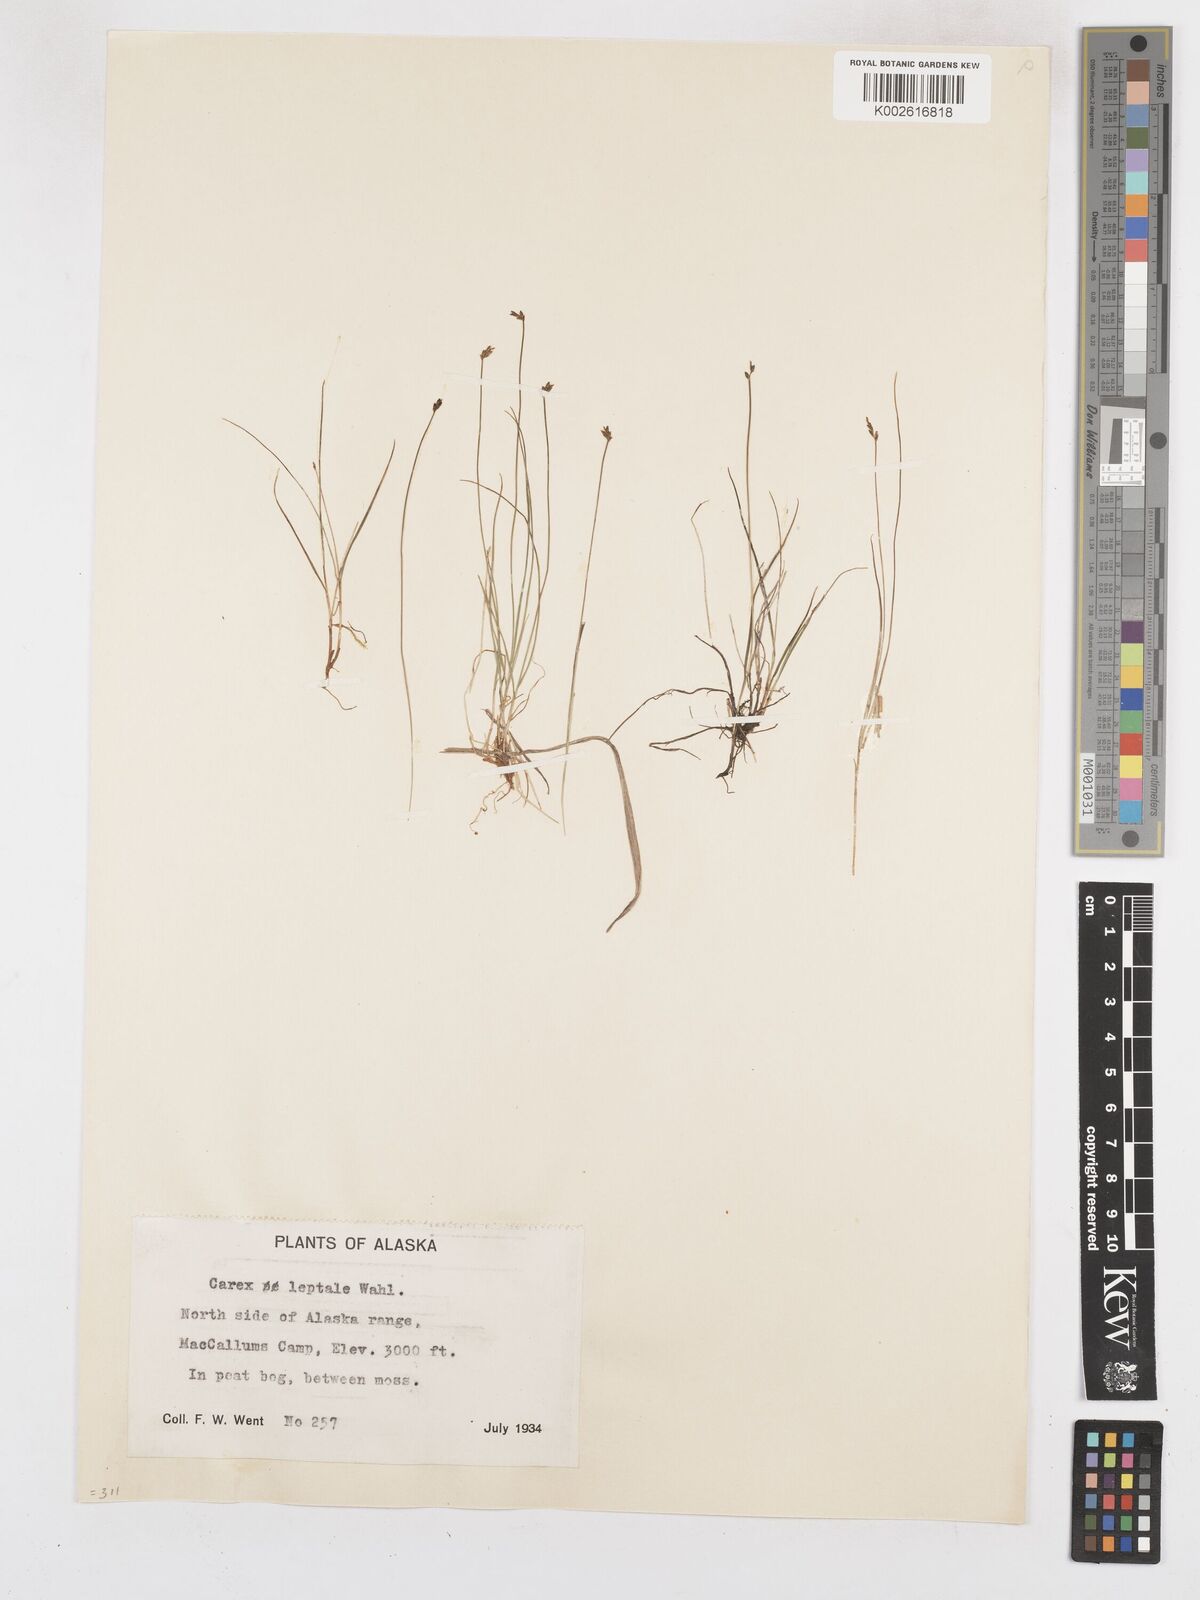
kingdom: Plantae
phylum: Tracheophyta
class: Liliopsida
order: Poales
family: Cyperaceae
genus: Carex
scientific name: Carex leptalea
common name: Bristly-stalked sedge
